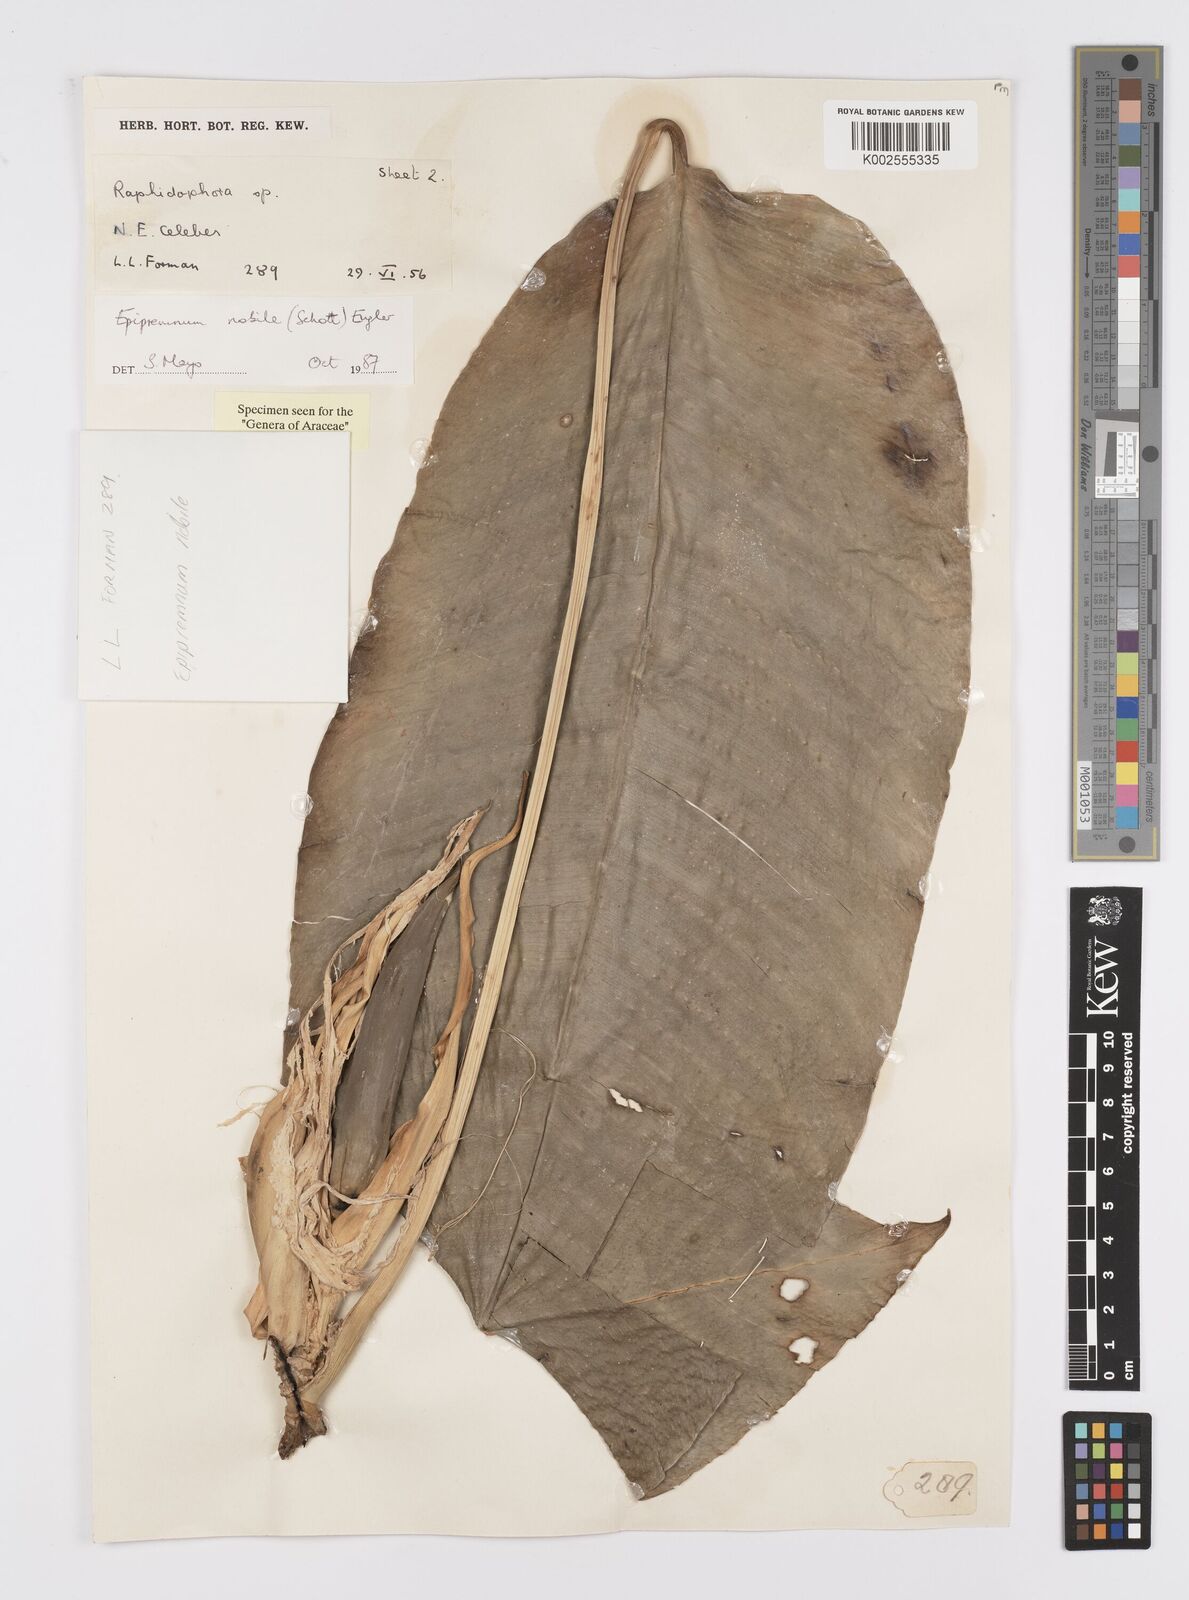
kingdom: Plantae
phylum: Tracheophyta
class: Liliopsida
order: Alismatales
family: Araceae
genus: Epipremnum
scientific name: Epipremnum nobile
